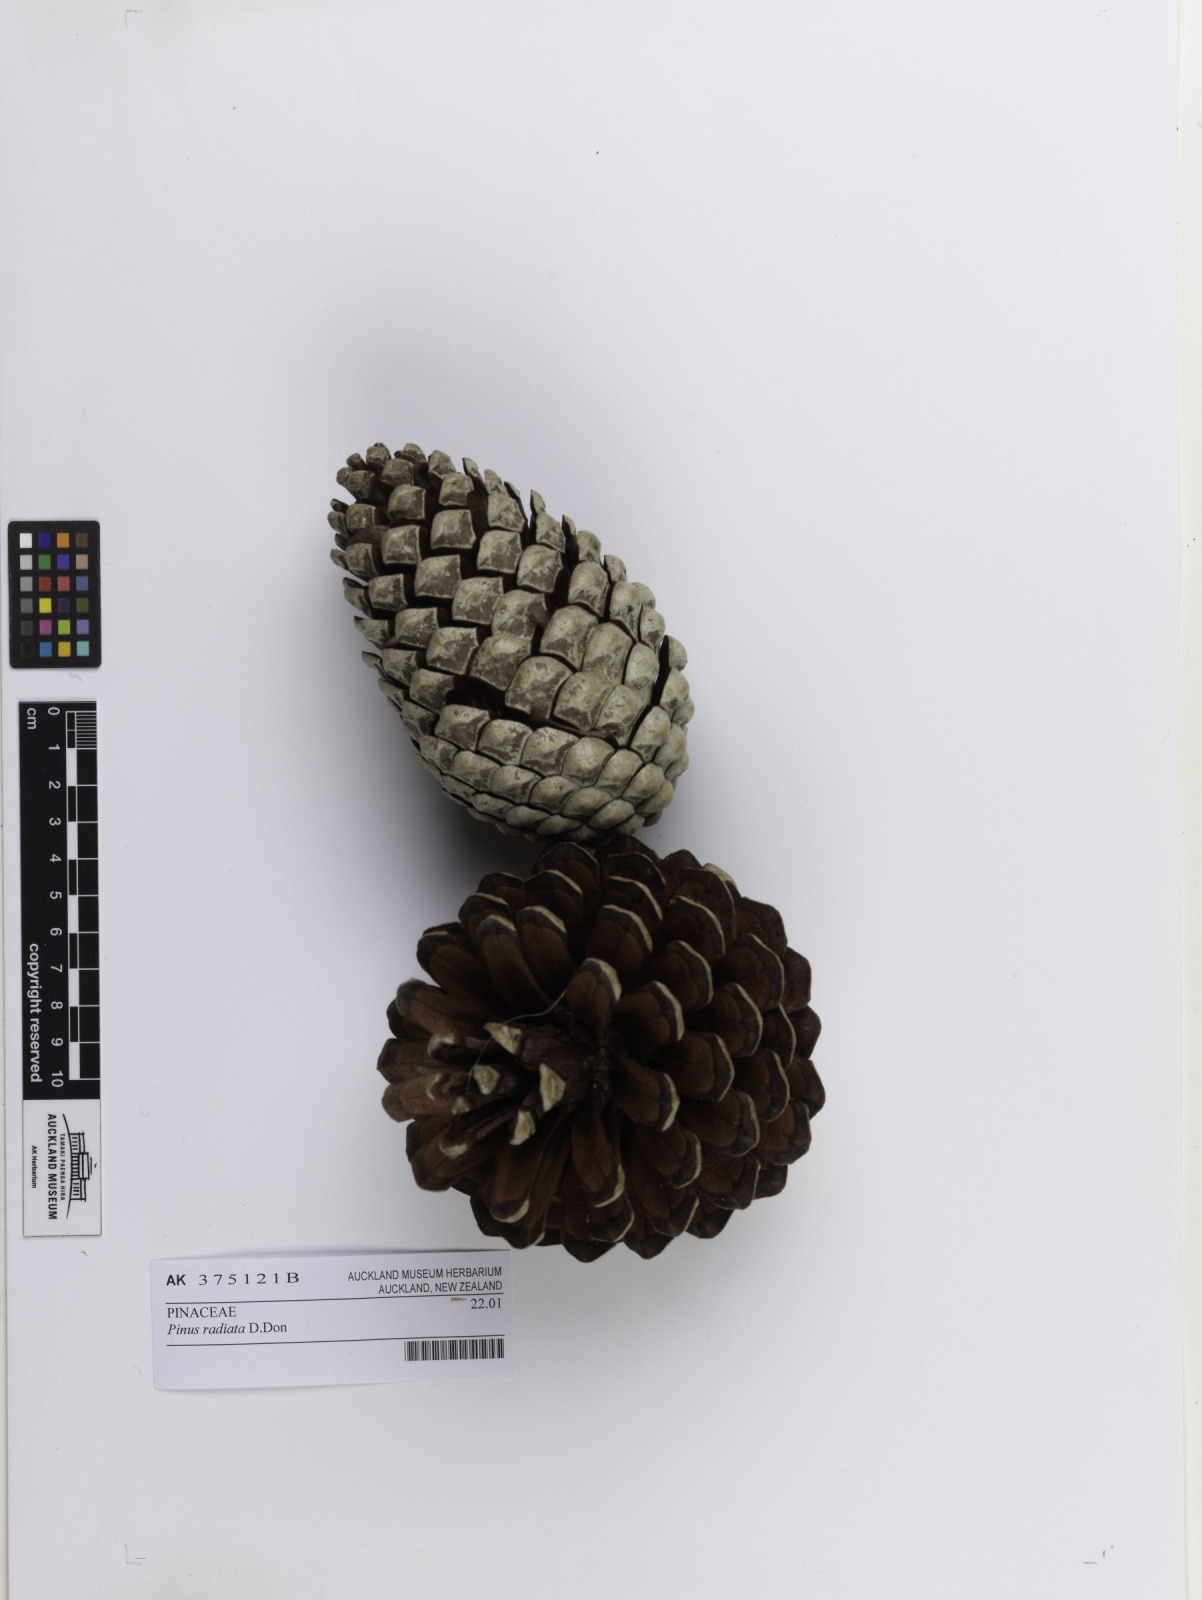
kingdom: Plantae
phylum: Tracheophyta
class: Pinopsida
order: Pinales
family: Pinaceae
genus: Pinus
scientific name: Pinus radiata
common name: Monterey pine
